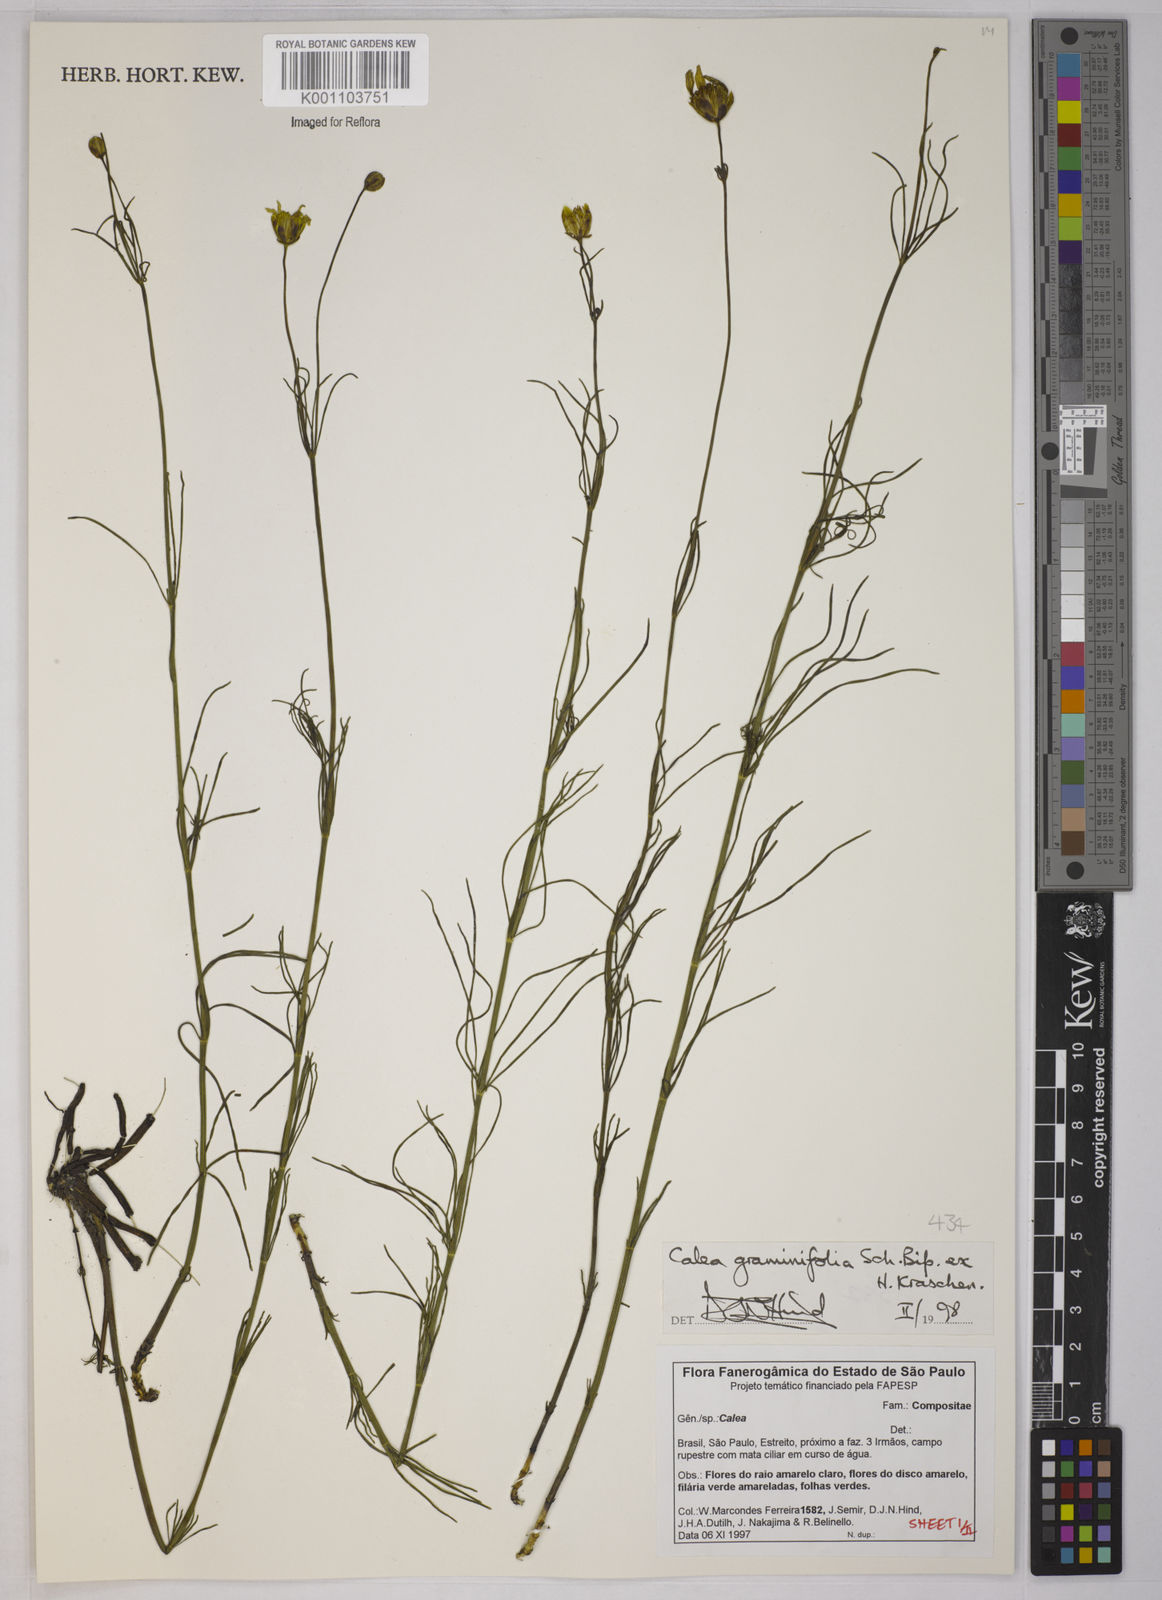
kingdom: Plantae
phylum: Tracheophyta
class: Magnoliopsida
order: Asterales
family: Asteraceae
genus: Calea
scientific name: Calea graminifolia
